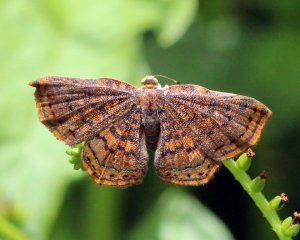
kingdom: Animalia
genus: Caria
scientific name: Caria ino
